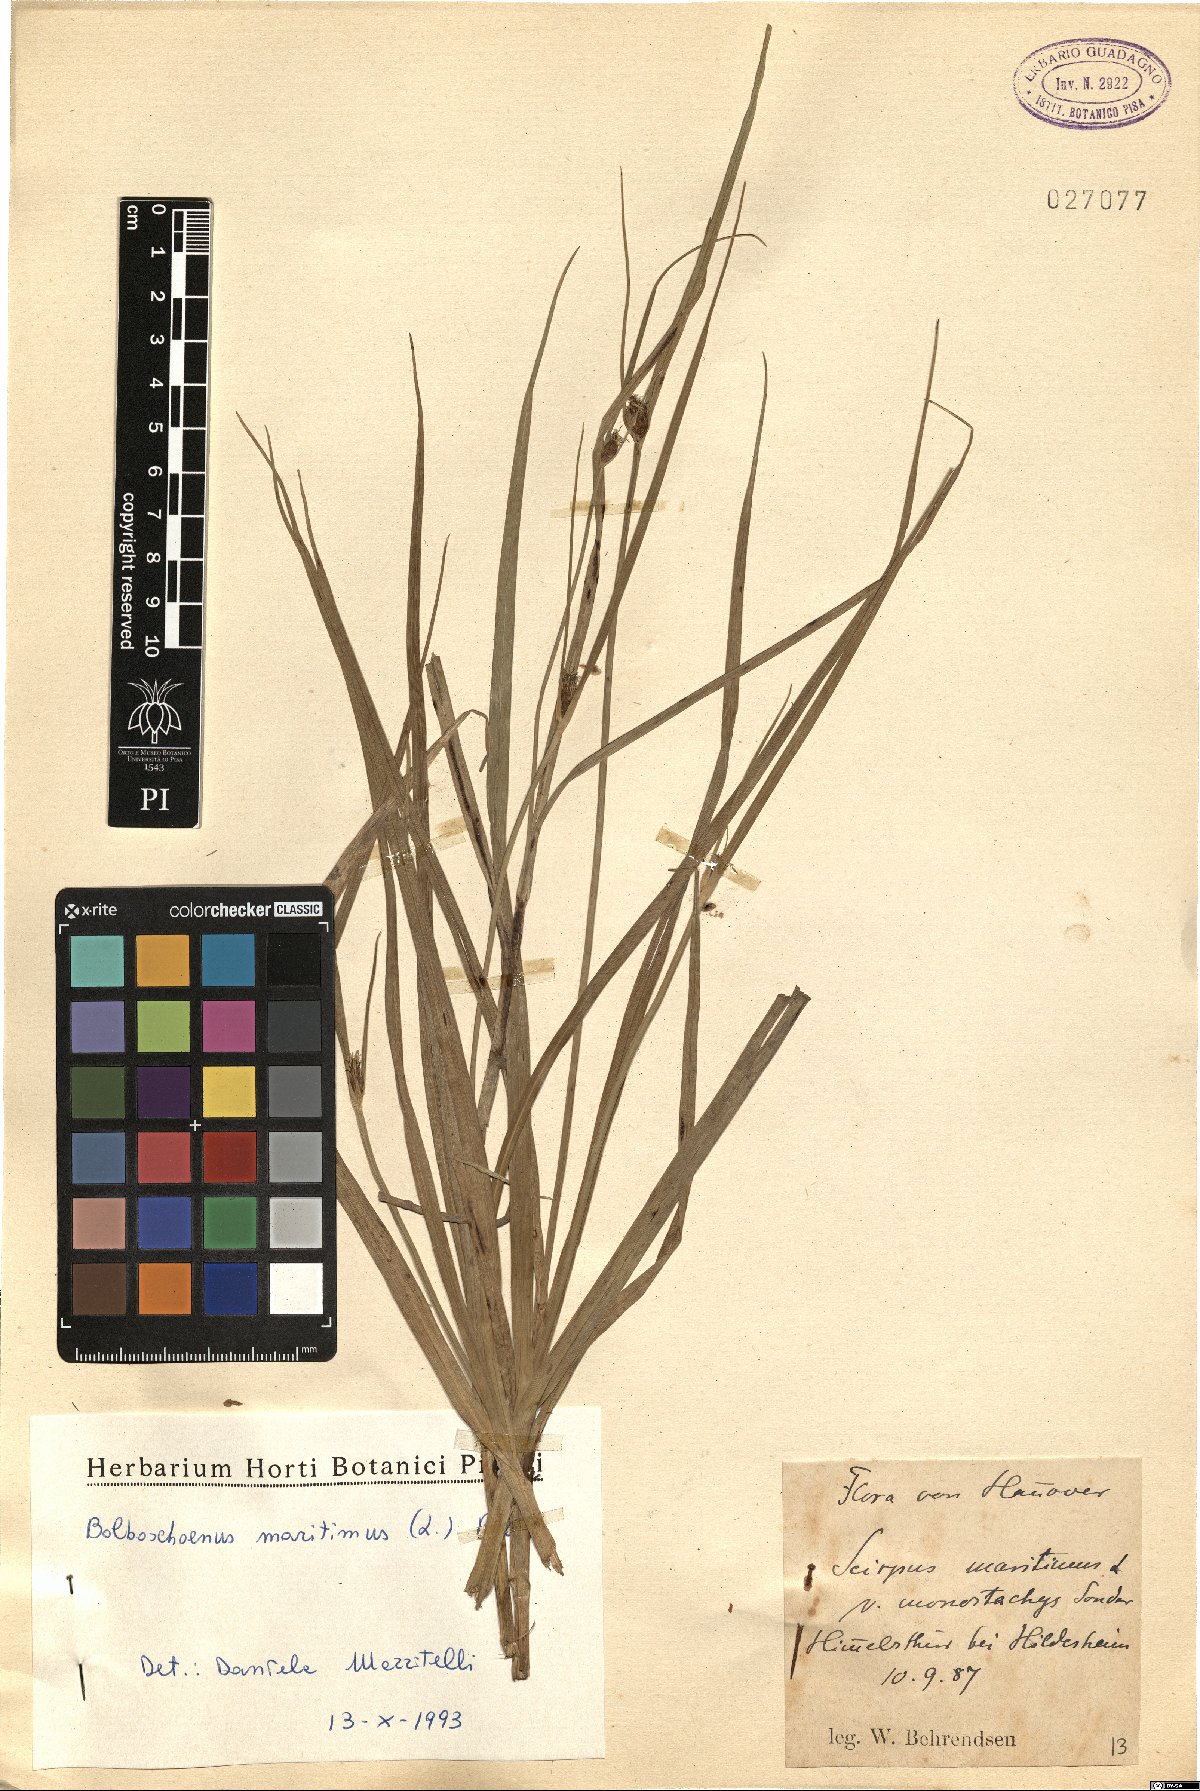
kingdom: Plantae
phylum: Tracheophyta
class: Liliopsida
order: Poales
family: Cyperaceae
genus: Bolboschoenus
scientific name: Bolboschoenus maritimus
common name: Sea club-rush
